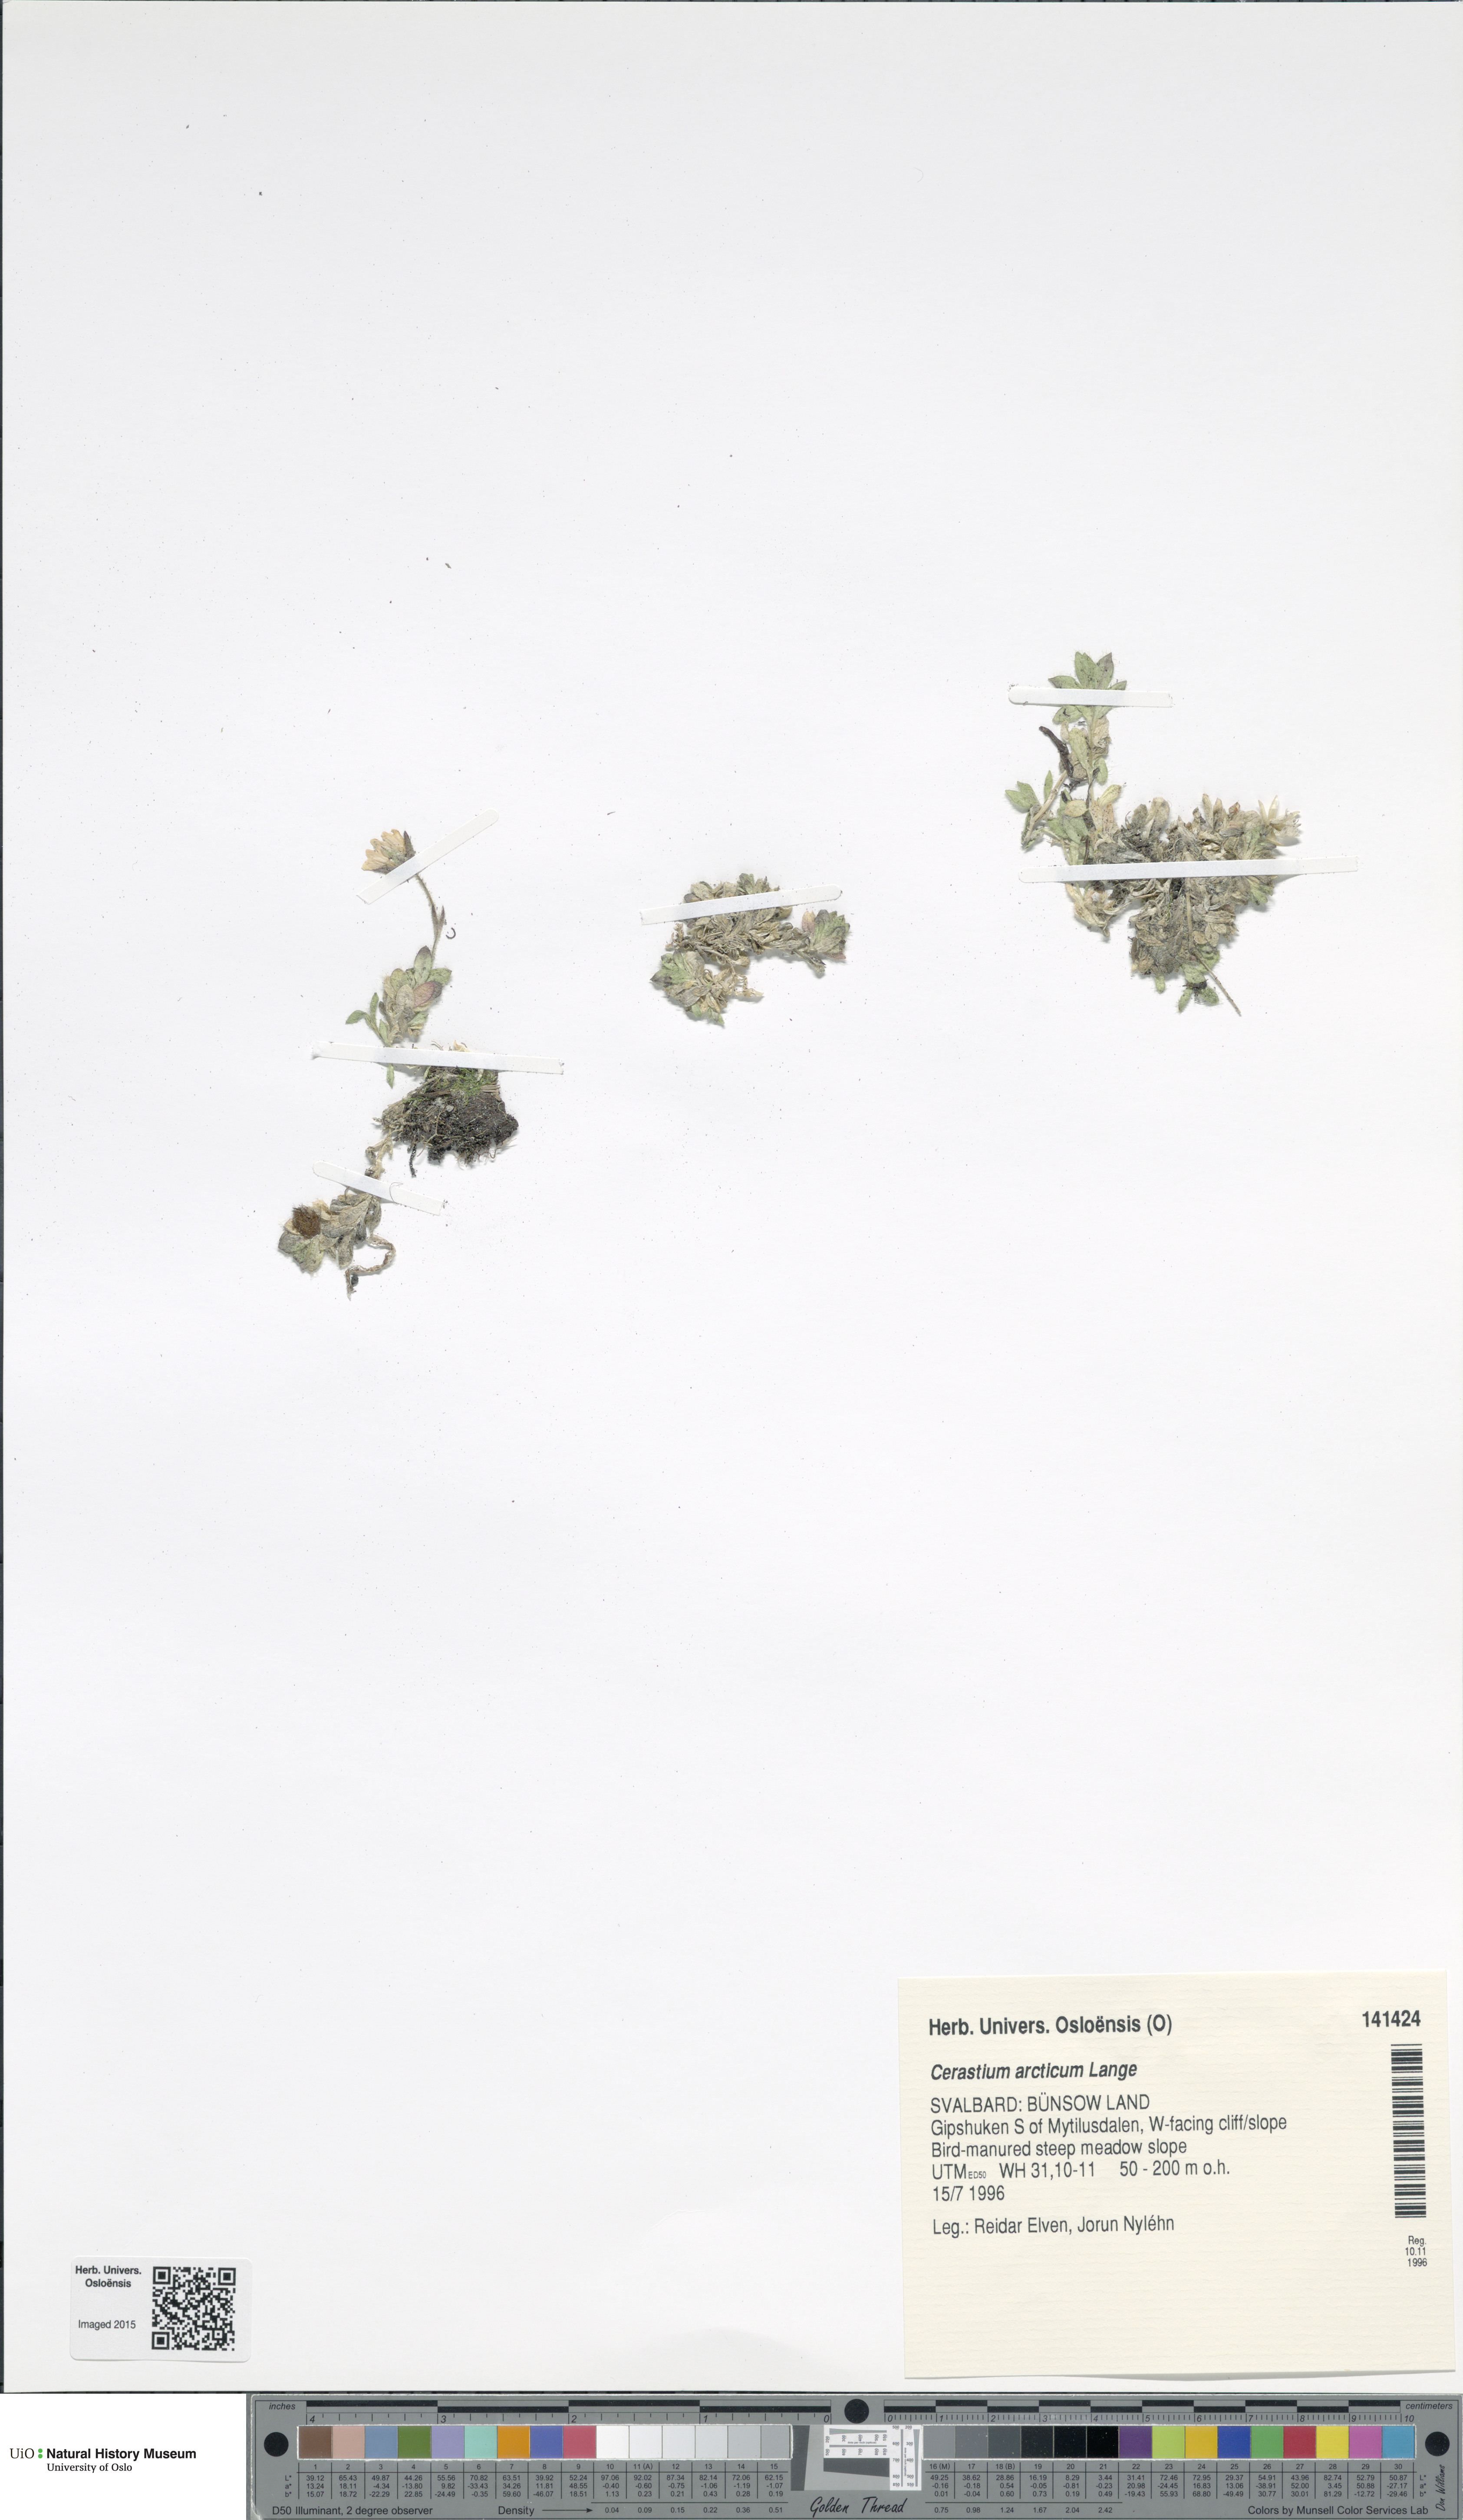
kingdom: Plantae
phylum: Tracheophyta
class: Magnoliopsida
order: Caryophyllales
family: Caryophyllaceae
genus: Cerastium
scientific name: Cerastium arcticum
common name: Arctic mouse-ear
